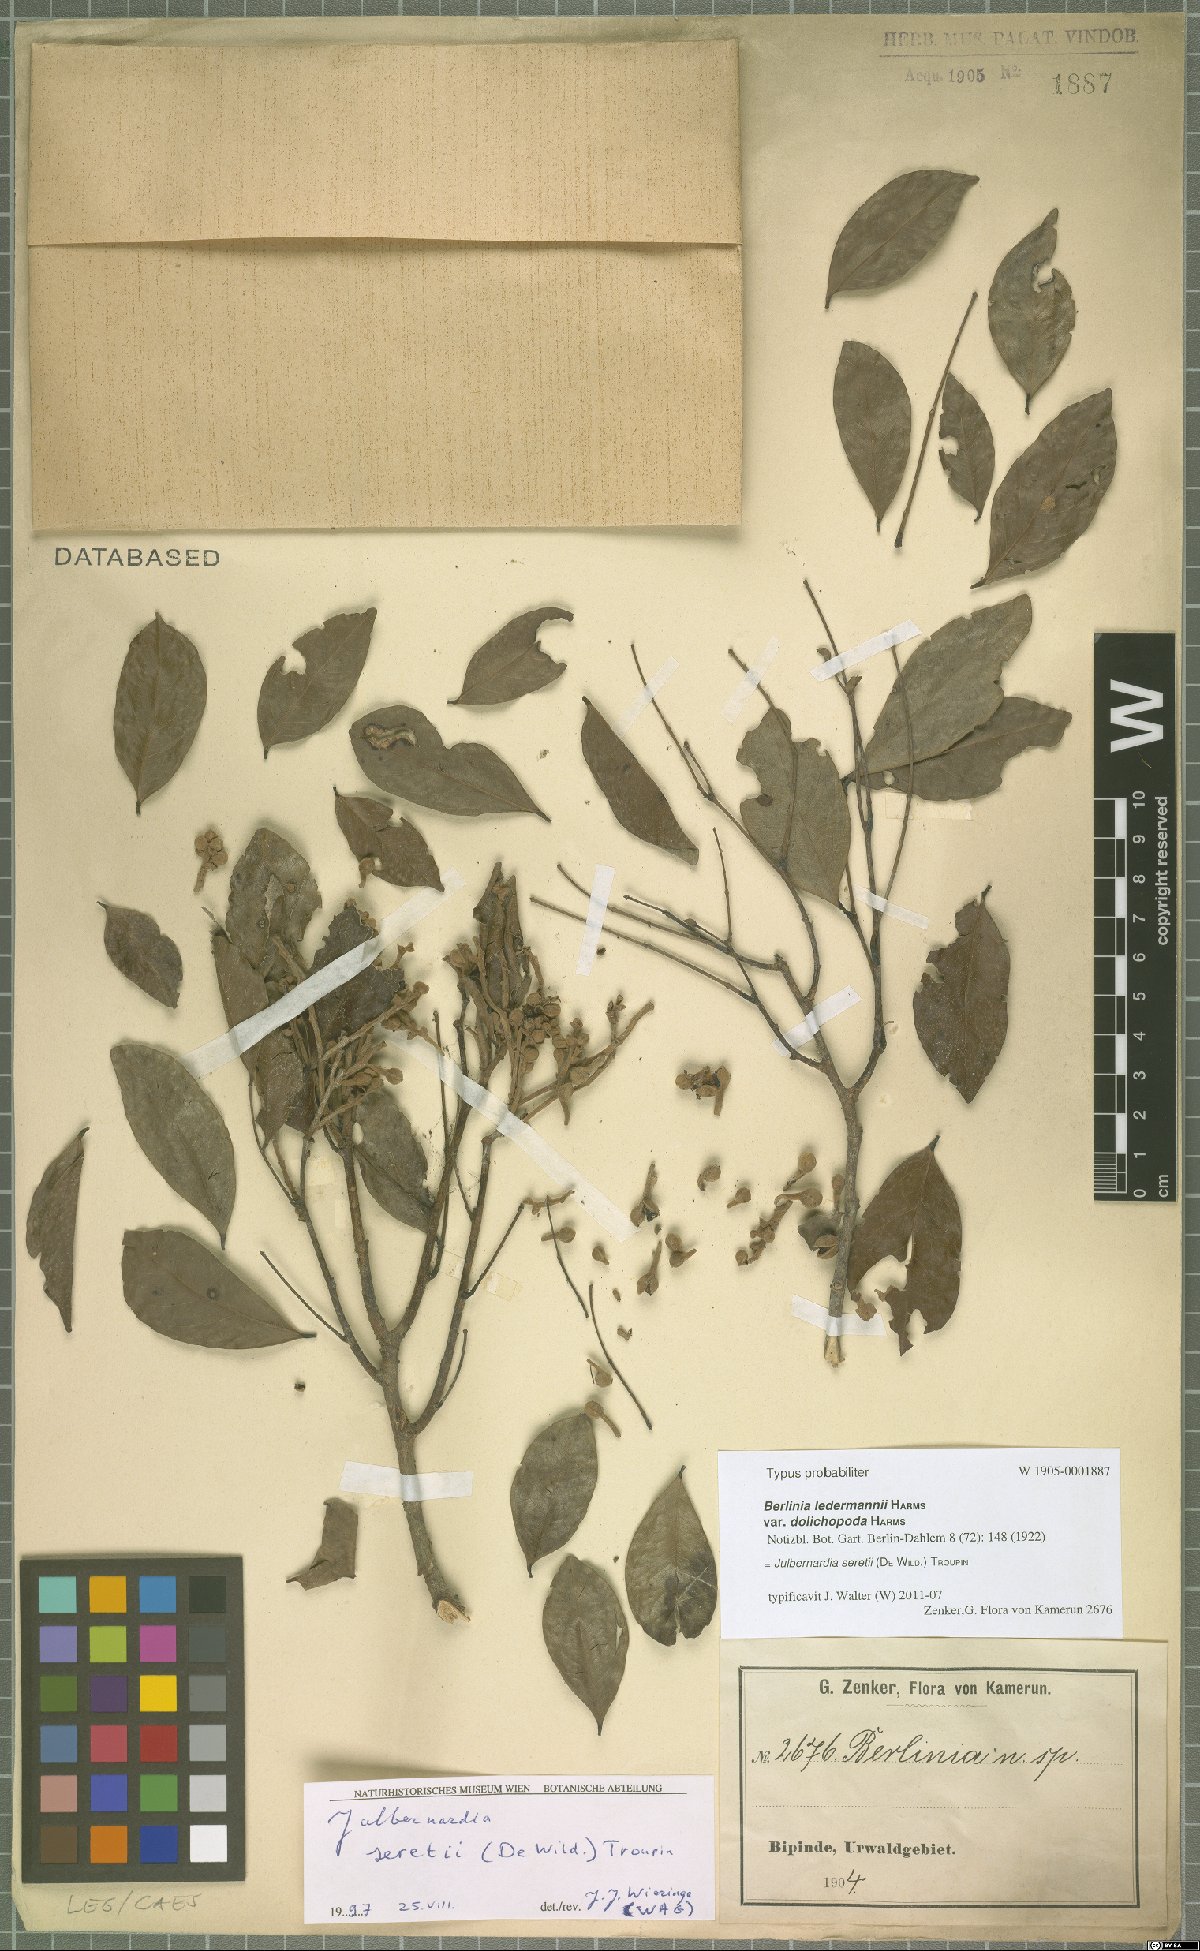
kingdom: Plantae
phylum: Tracheophyta
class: Magnoliopsida
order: Fabales
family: Fabaceae
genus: Julbernardia
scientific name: Julbernardia seretii
